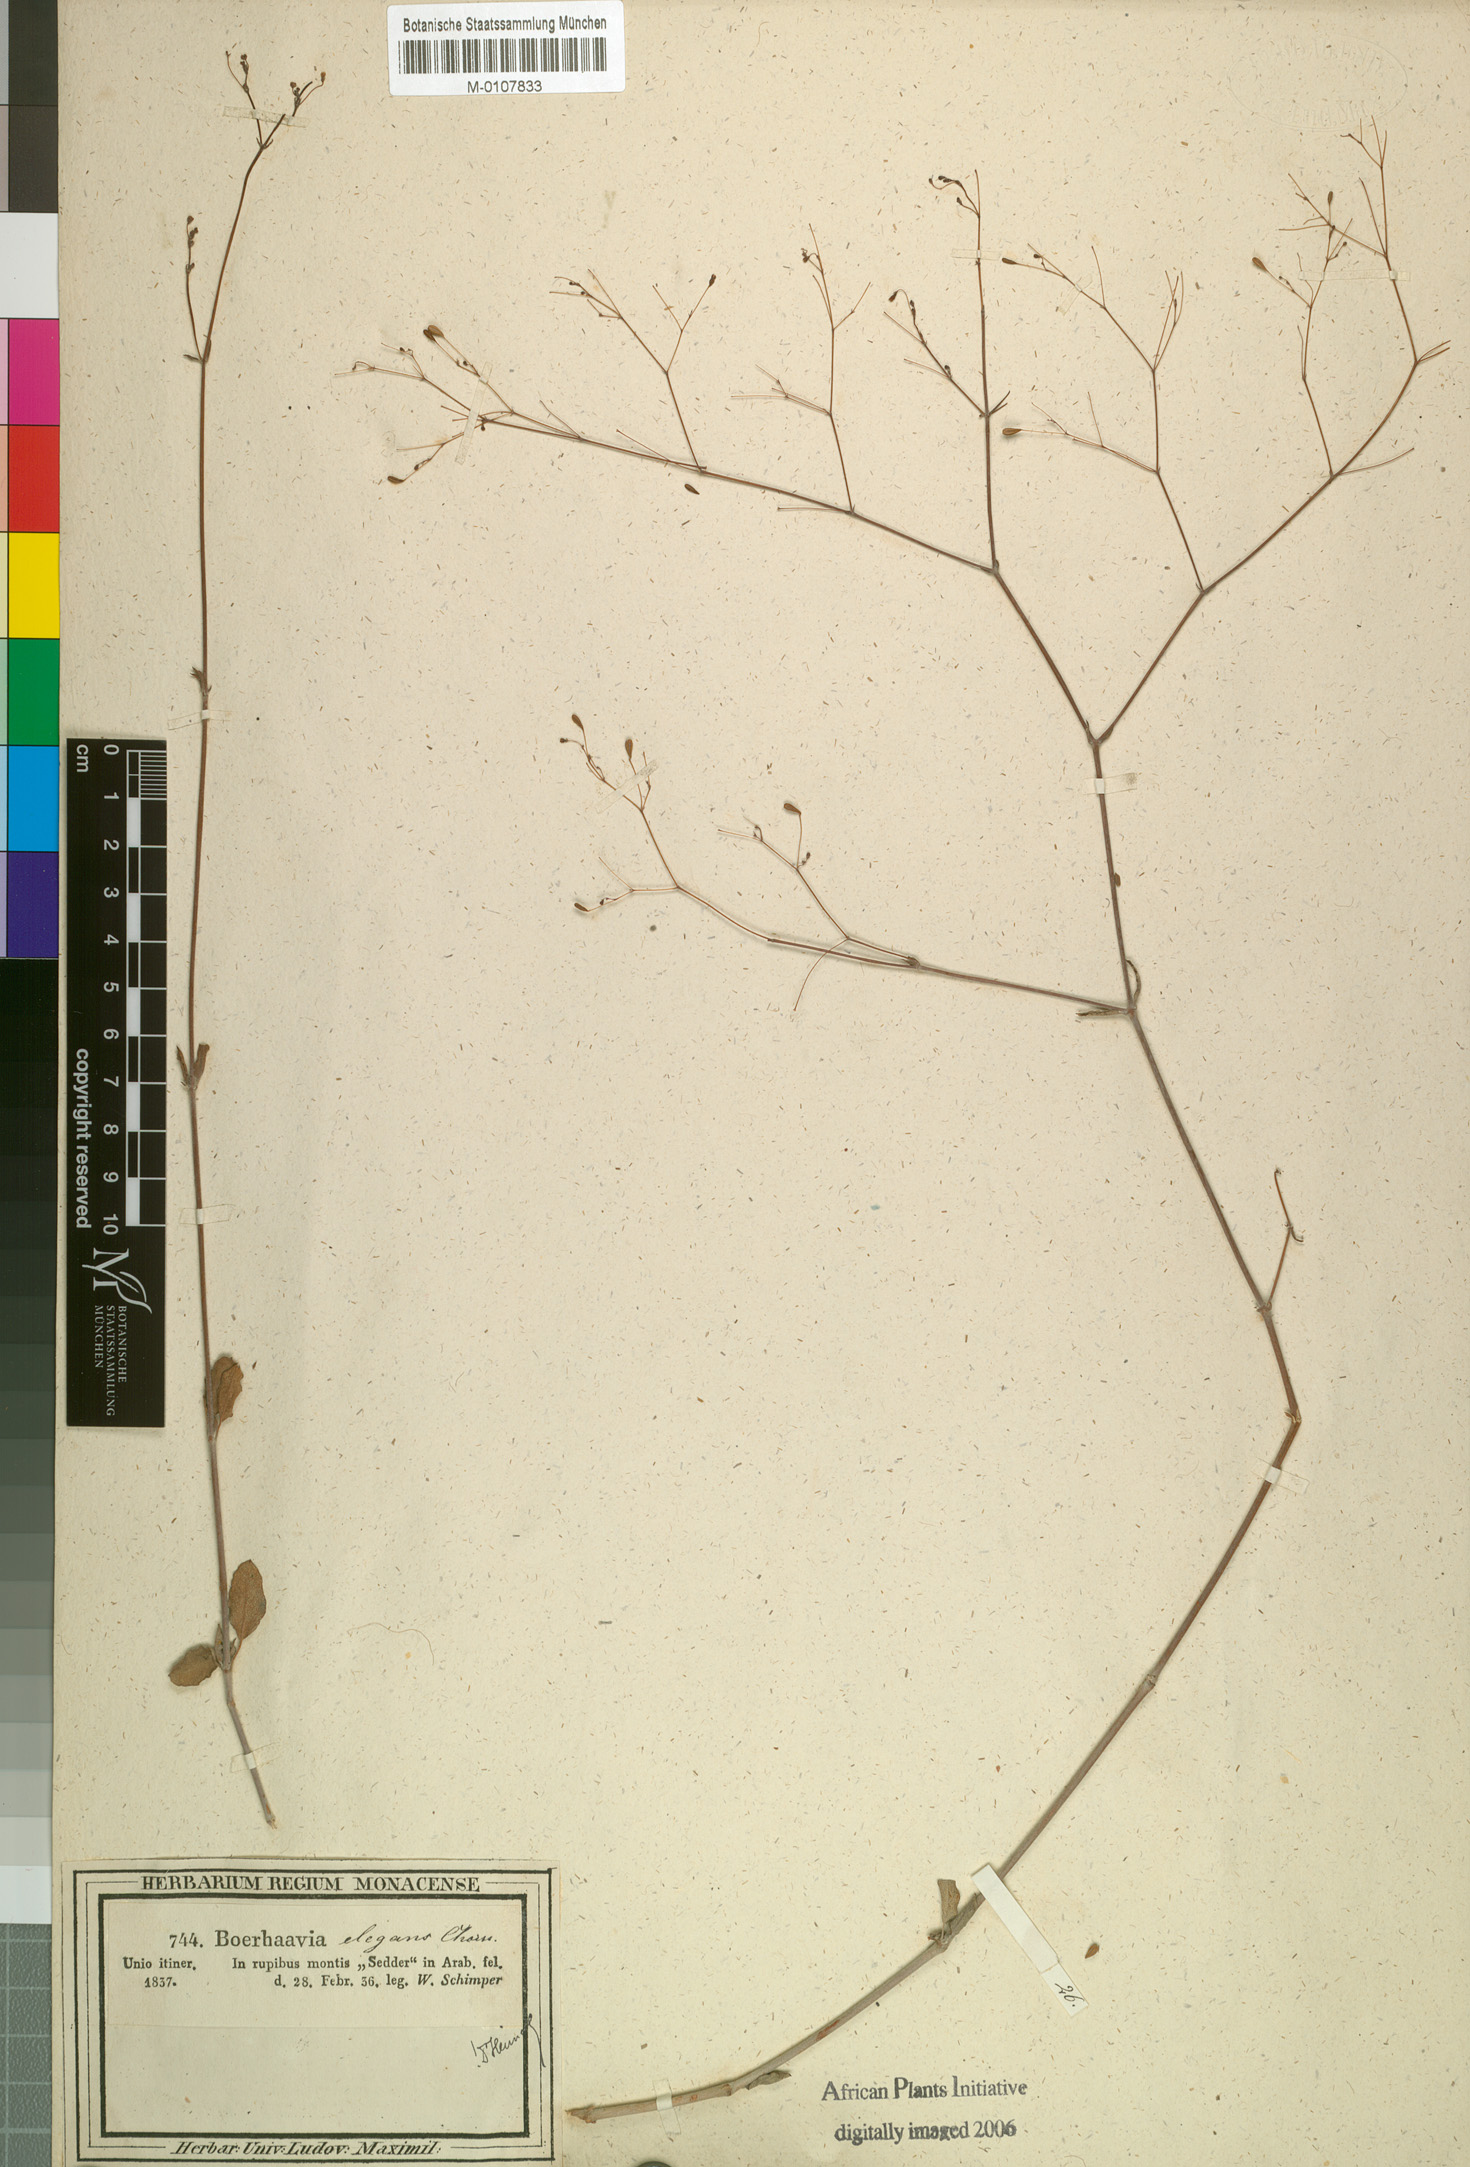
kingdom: Plantae
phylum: Tracheophyta
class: Magnoliopsida
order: Caryophyllales
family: Nyctaginaceae
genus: Boerhavia
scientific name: Boerhavia elegans
